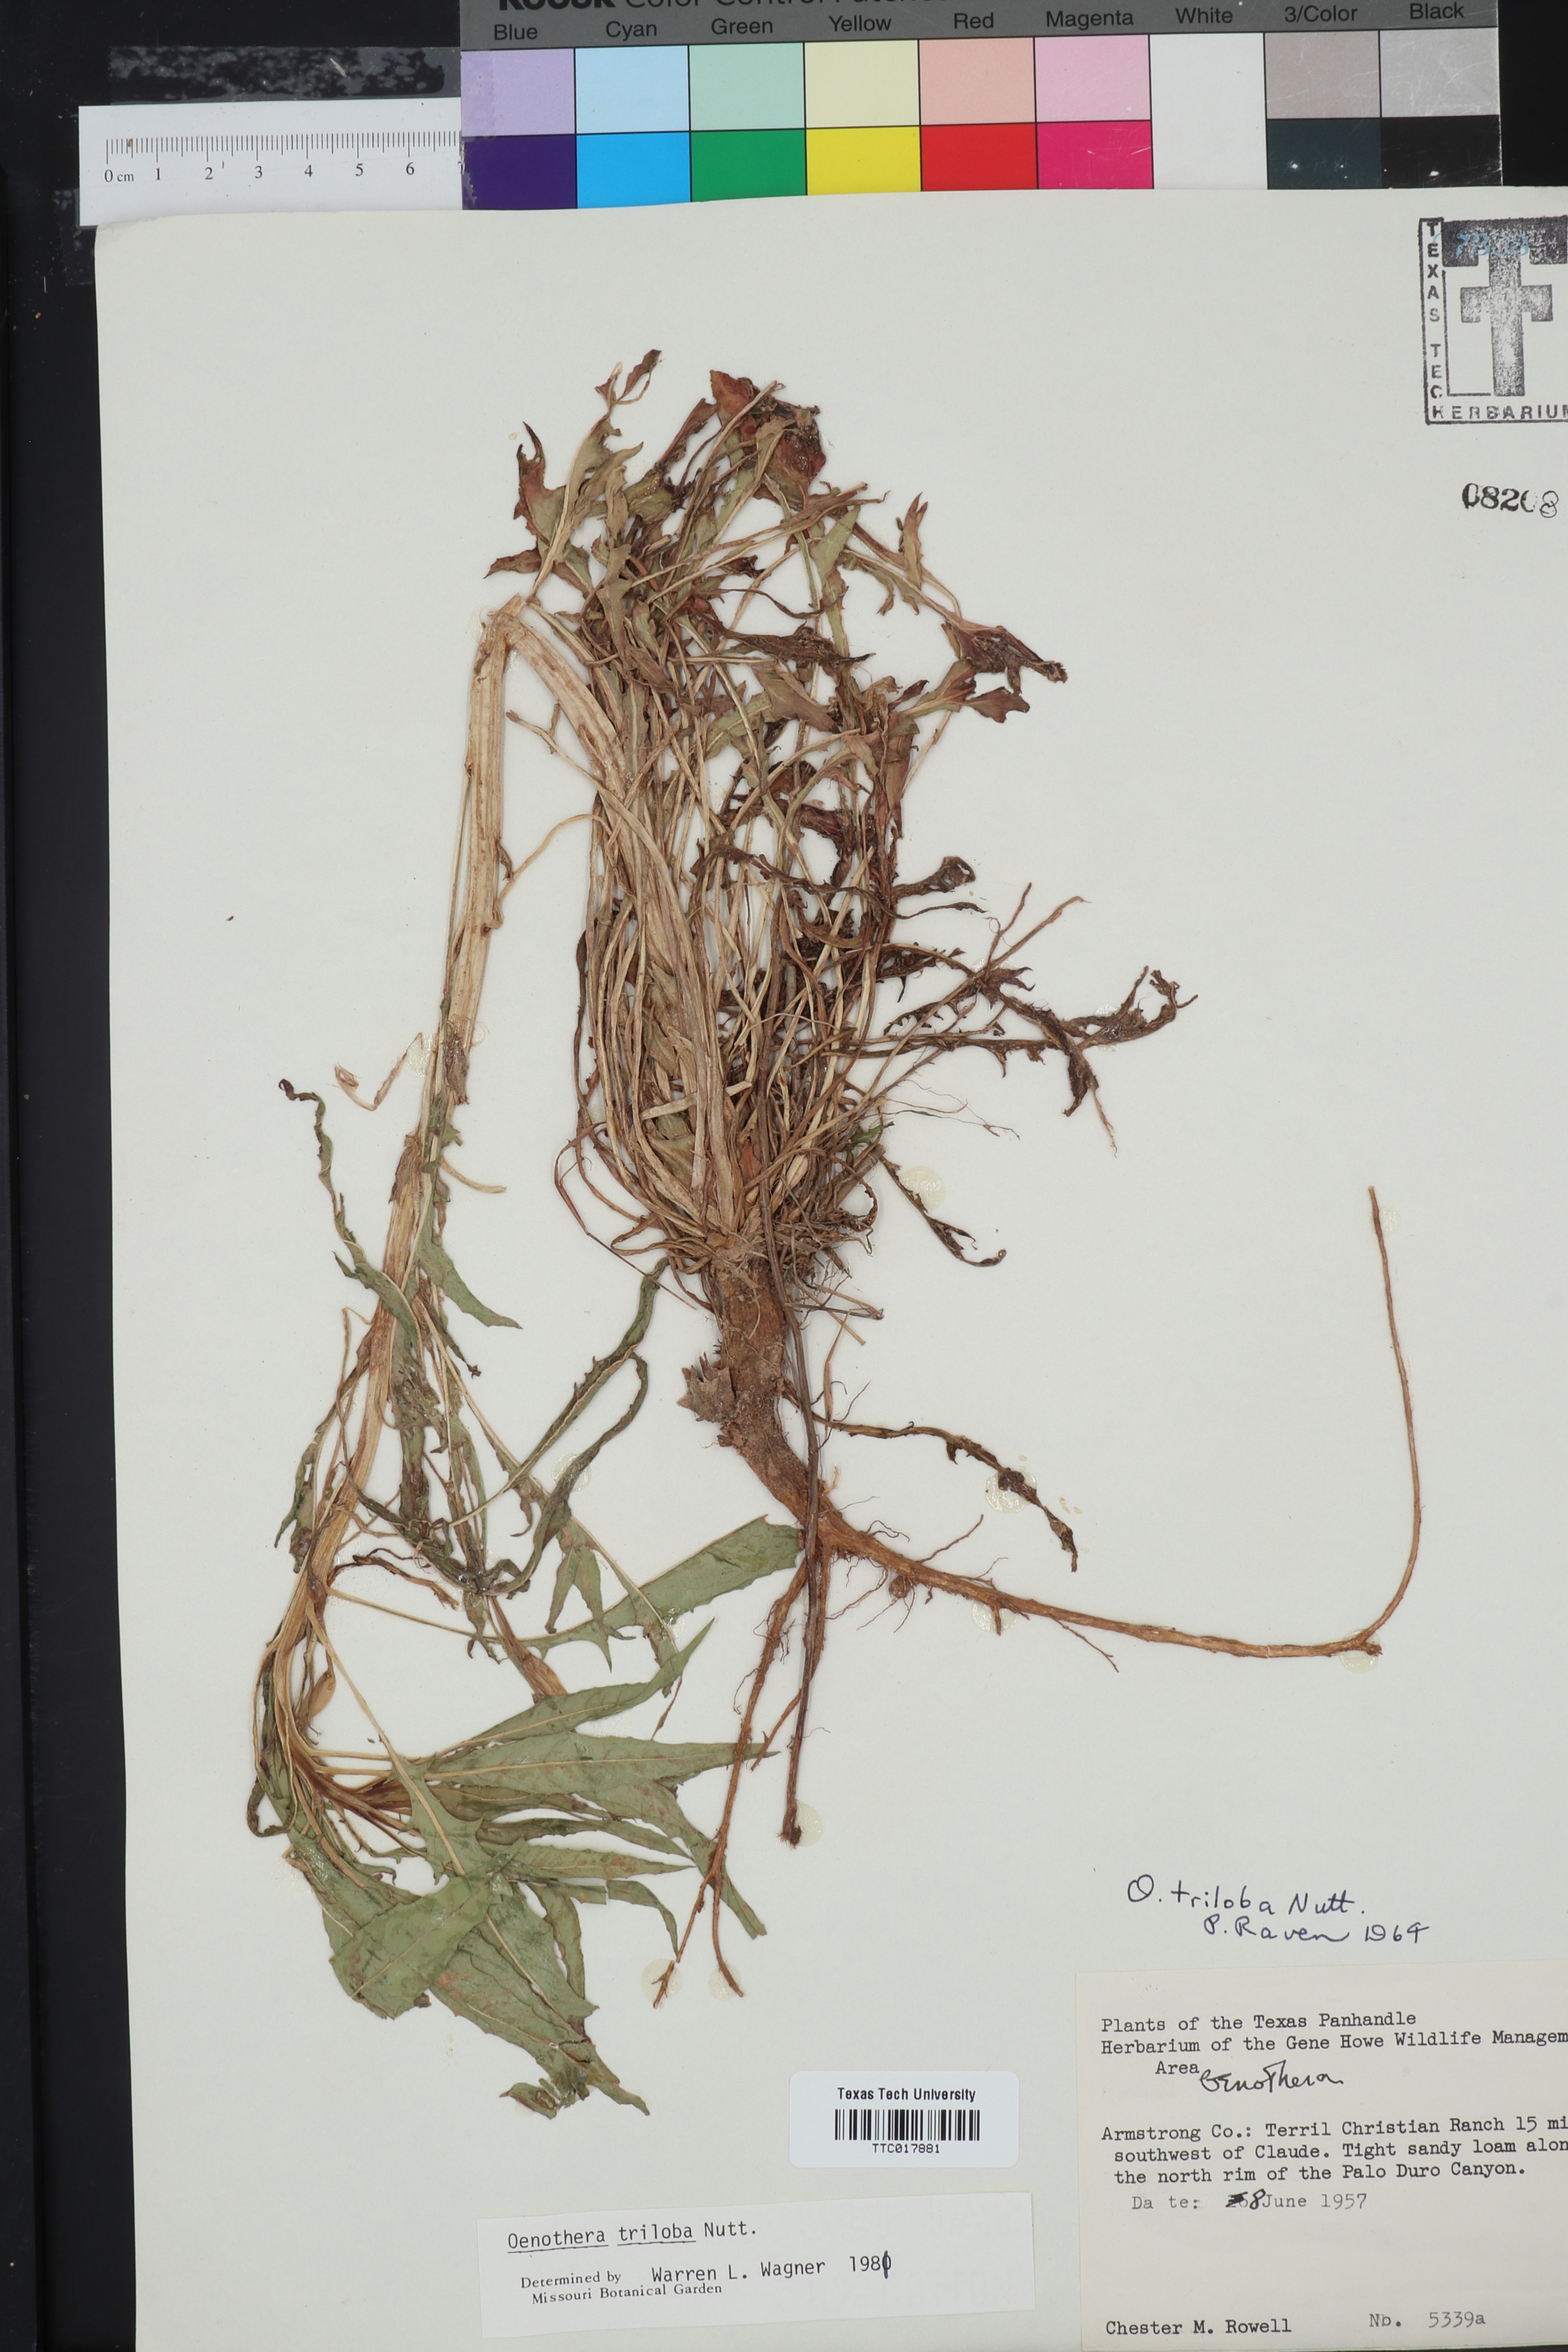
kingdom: Plantae
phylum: Tracheophyta
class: Magnoliopsida
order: Myrtales
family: Onagraceae
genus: Oenothera
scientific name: Oenothera triloba
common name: Sessile evening-primrose
